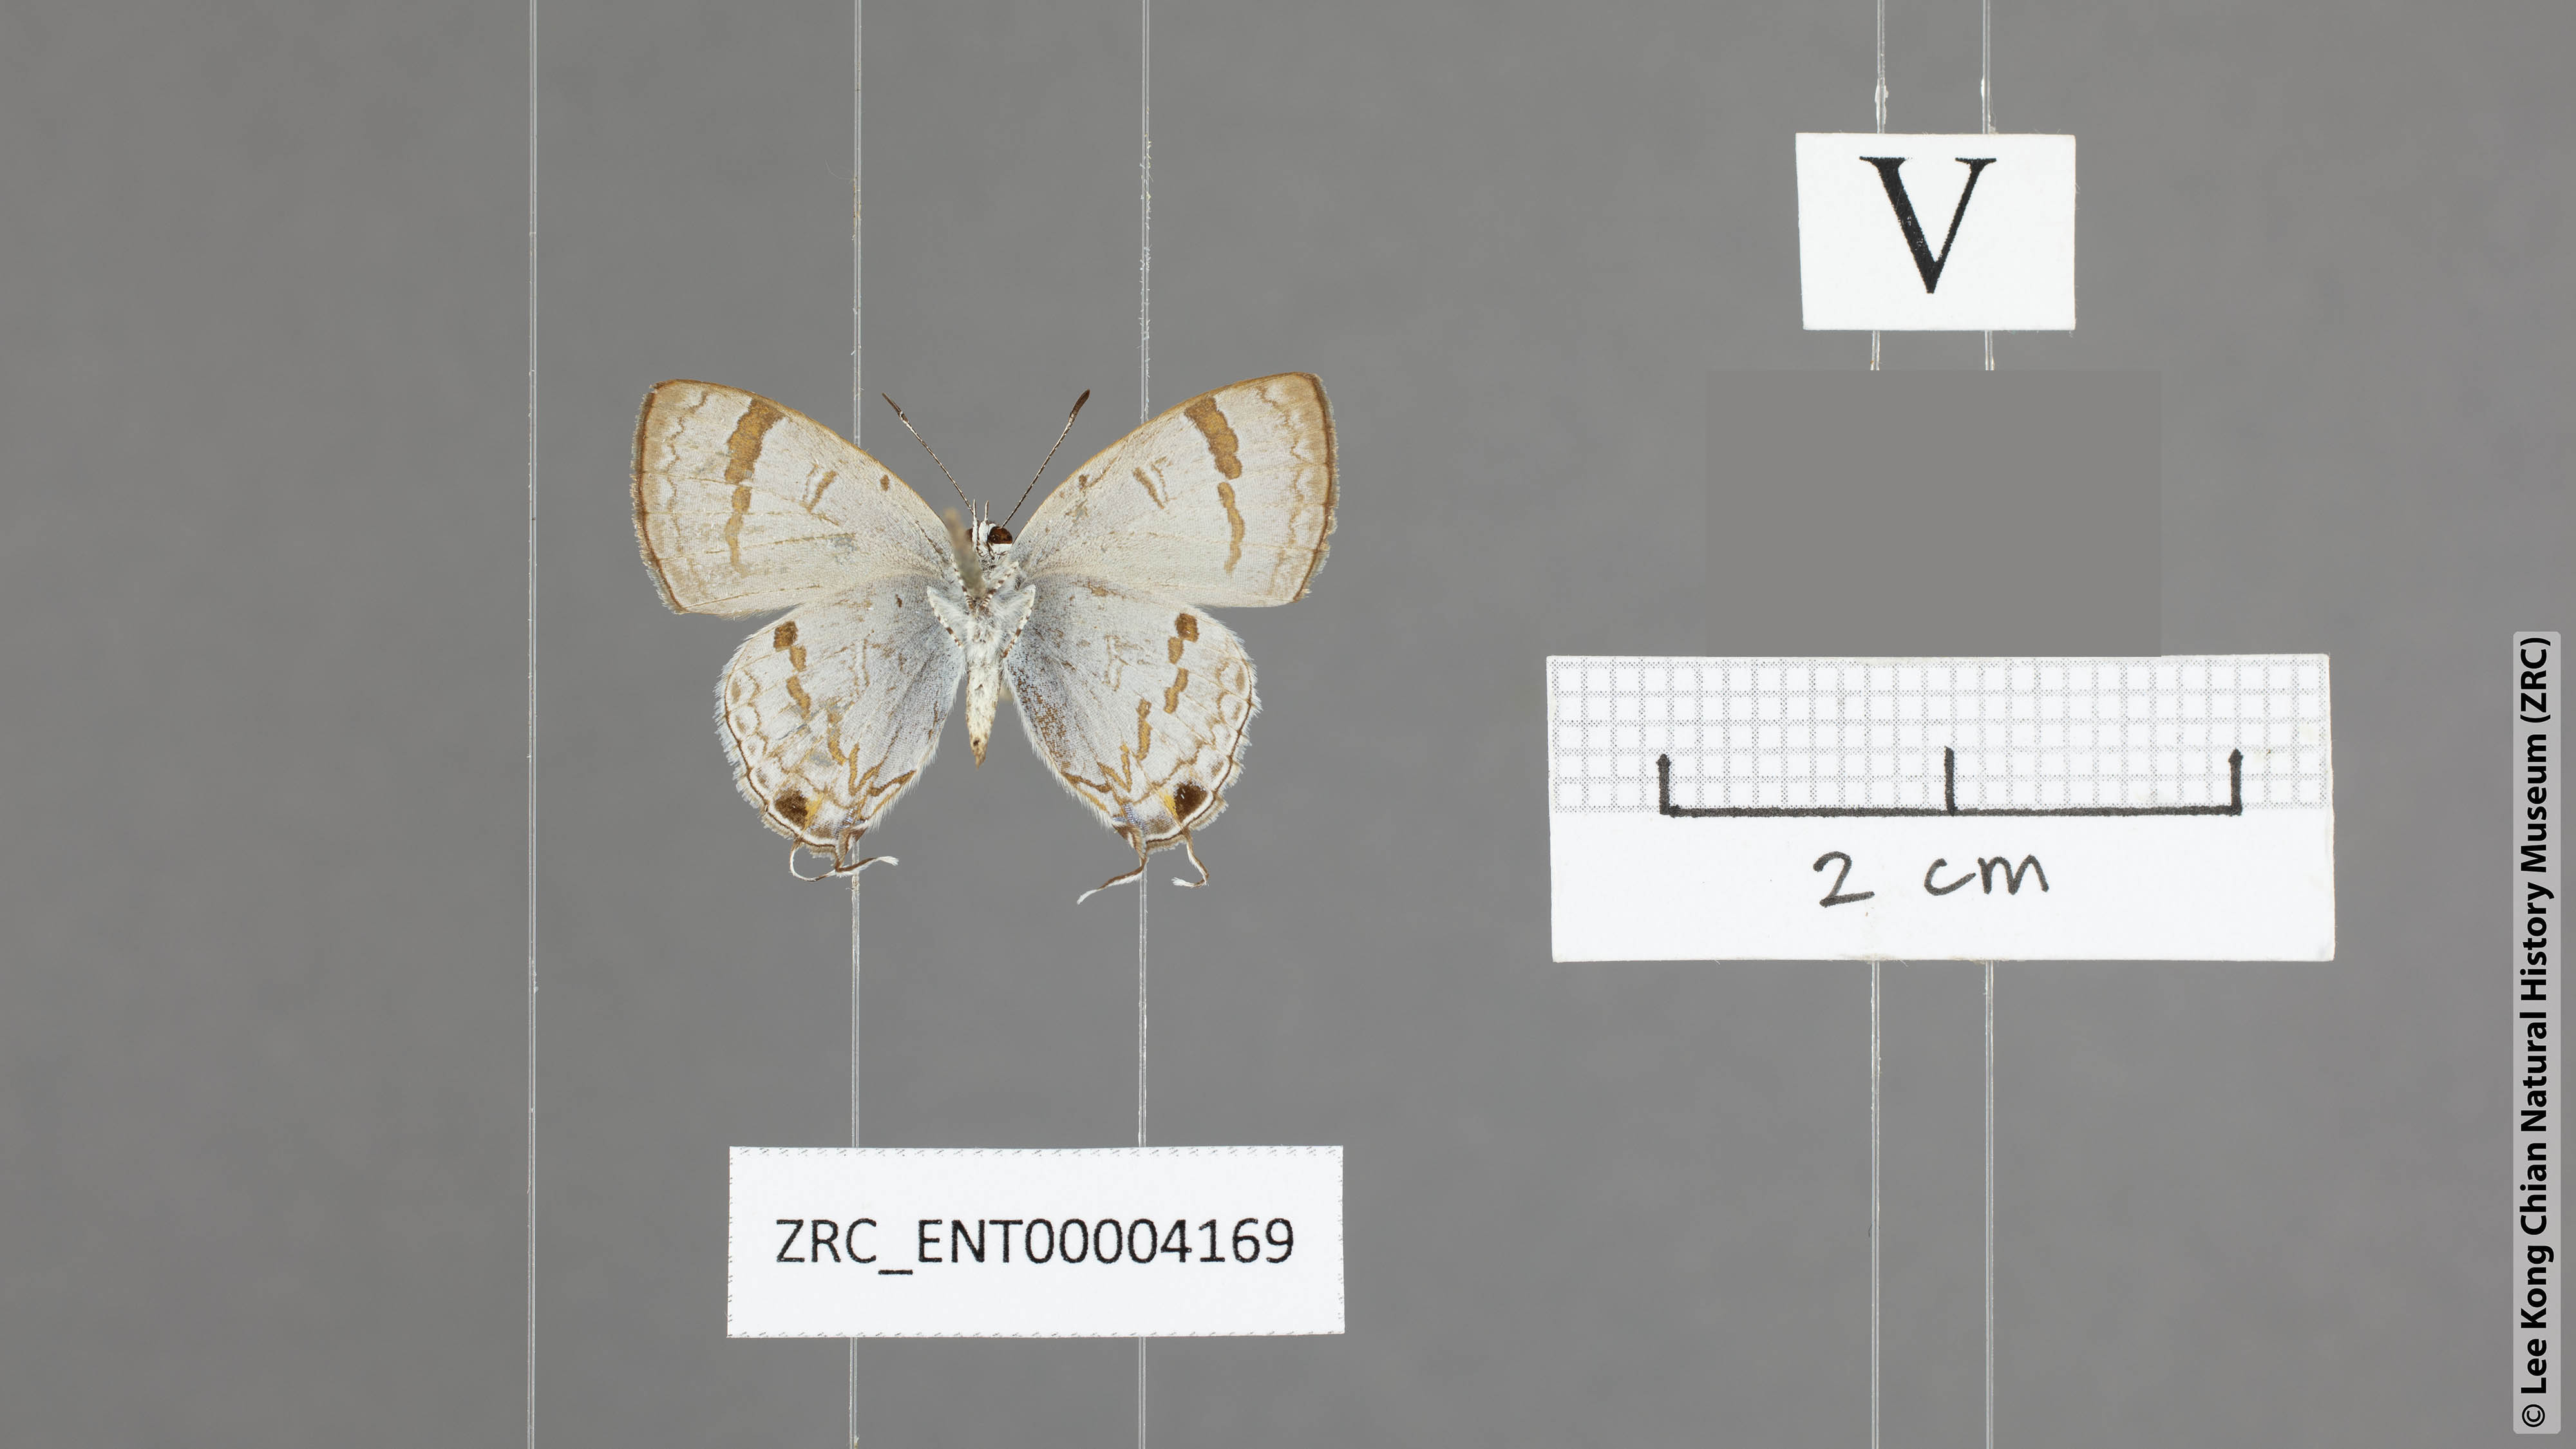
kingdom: Animalia
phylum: Arthropoda
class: Insecta
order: Lepidoptera
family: Lycaenidae
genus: Chliaria
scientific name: Chliaria kina
